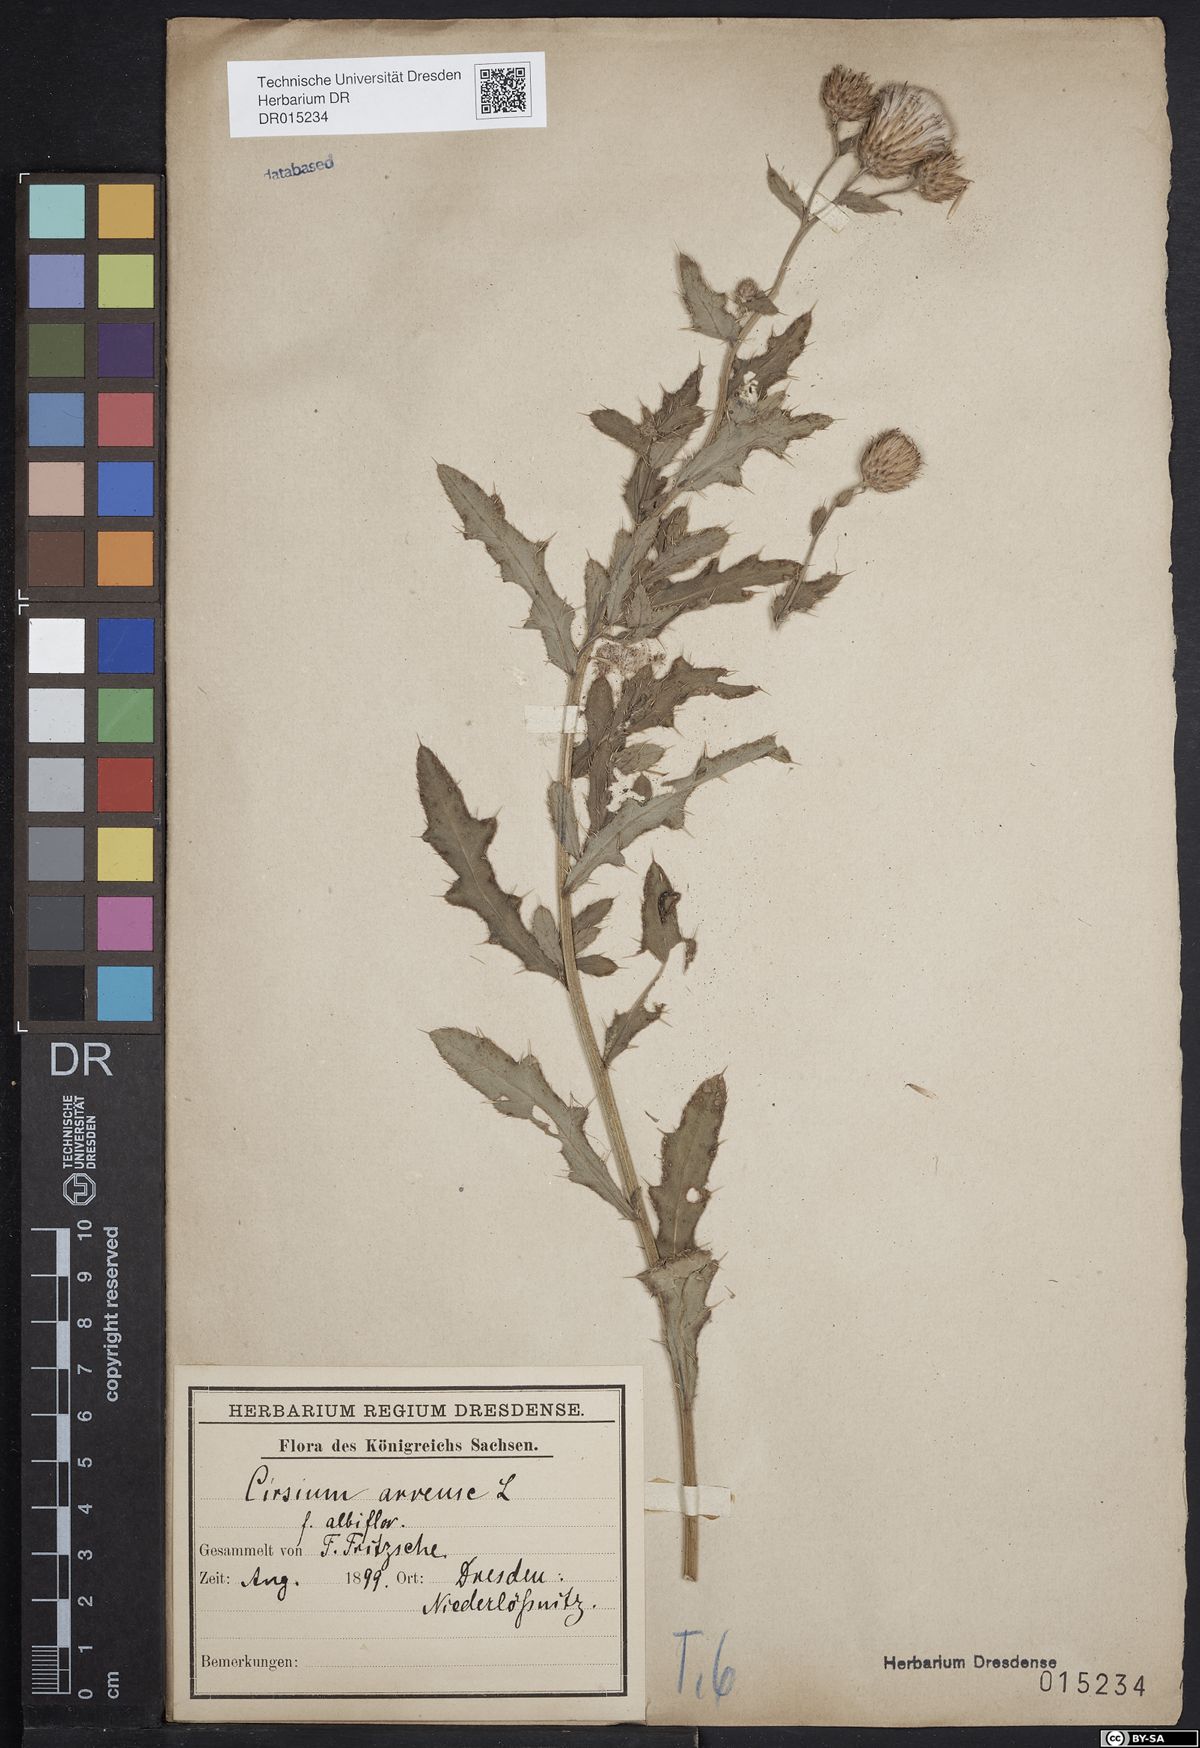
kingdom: Plantae
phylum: Tracheophyta
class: Magnoliopsida
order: Asterales
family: Asteraceae
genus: Cirsium
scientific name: Cirsium arvense
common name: Creeping thistle
